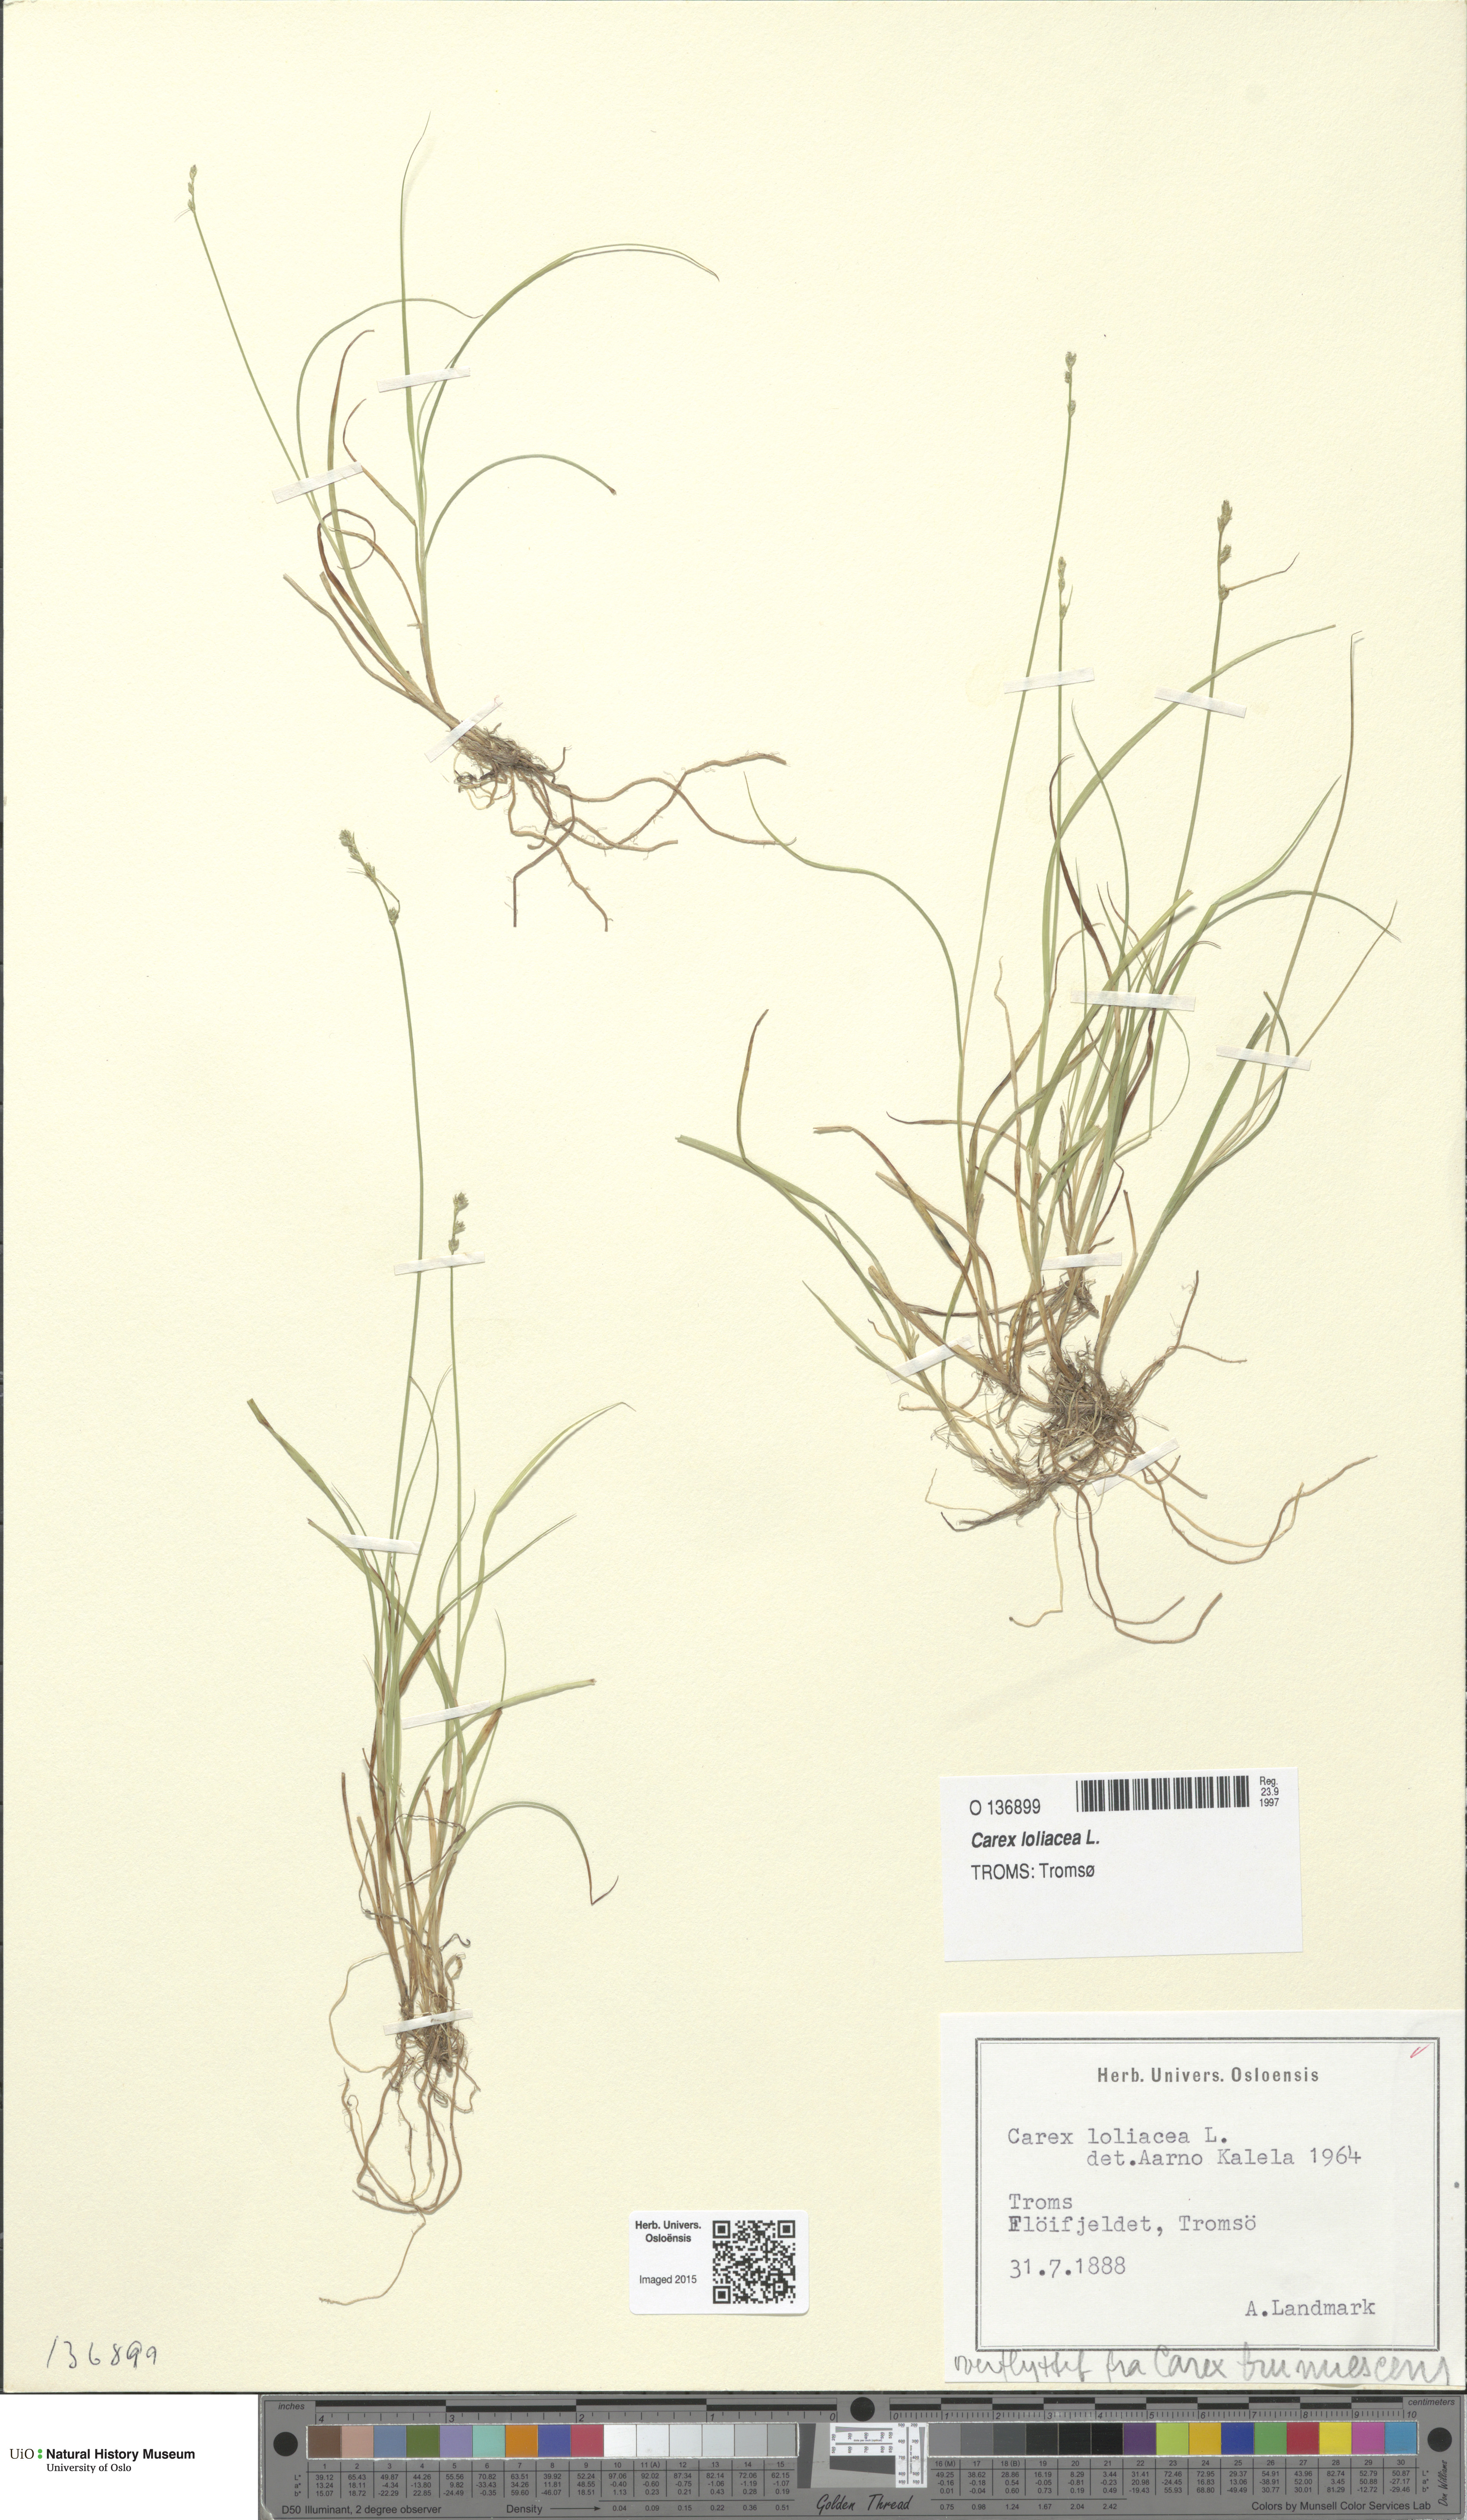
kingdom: Plantae
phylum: Tracheophyta
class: Liliopsida
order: Poales
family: Cyperaceae
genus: Carex
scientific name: Carex loliacea
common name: Ryegrass sedge
